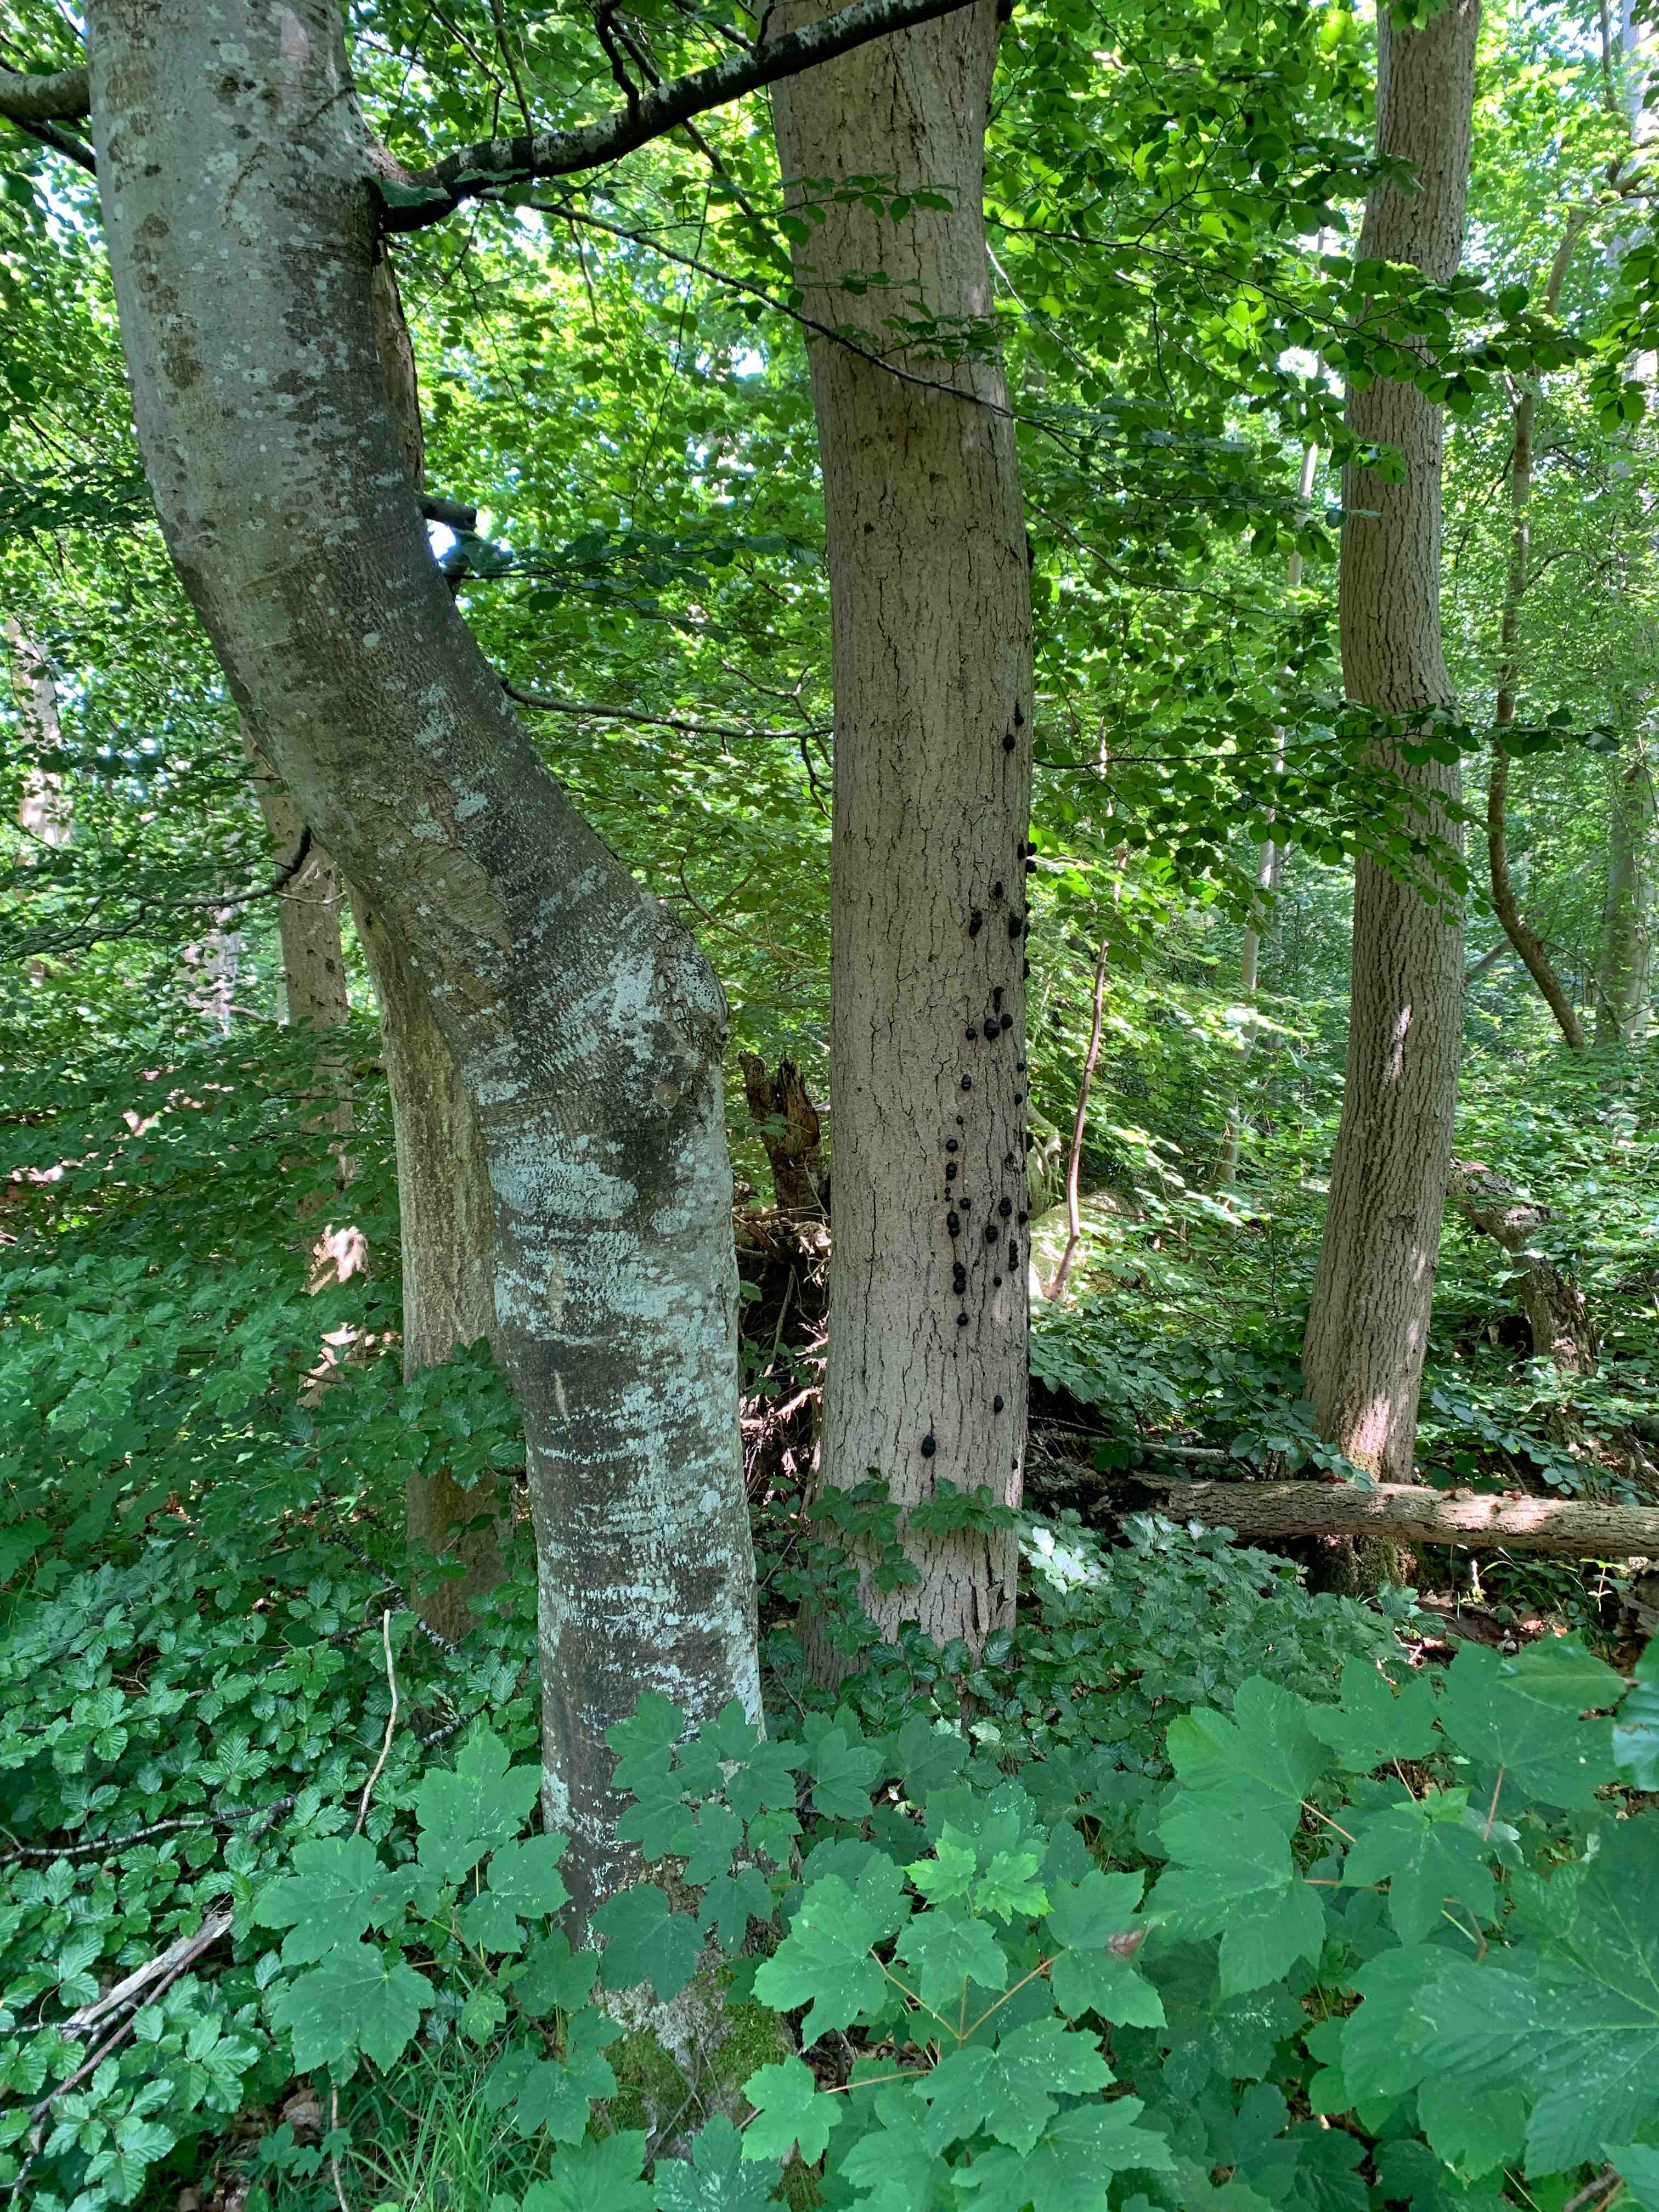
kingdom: Fungi
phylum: Ascomycota
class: Sordariomycetes
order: Xylariales
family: Hypoxylaceae
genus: Daldinia
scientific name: Daldinia concentrica
